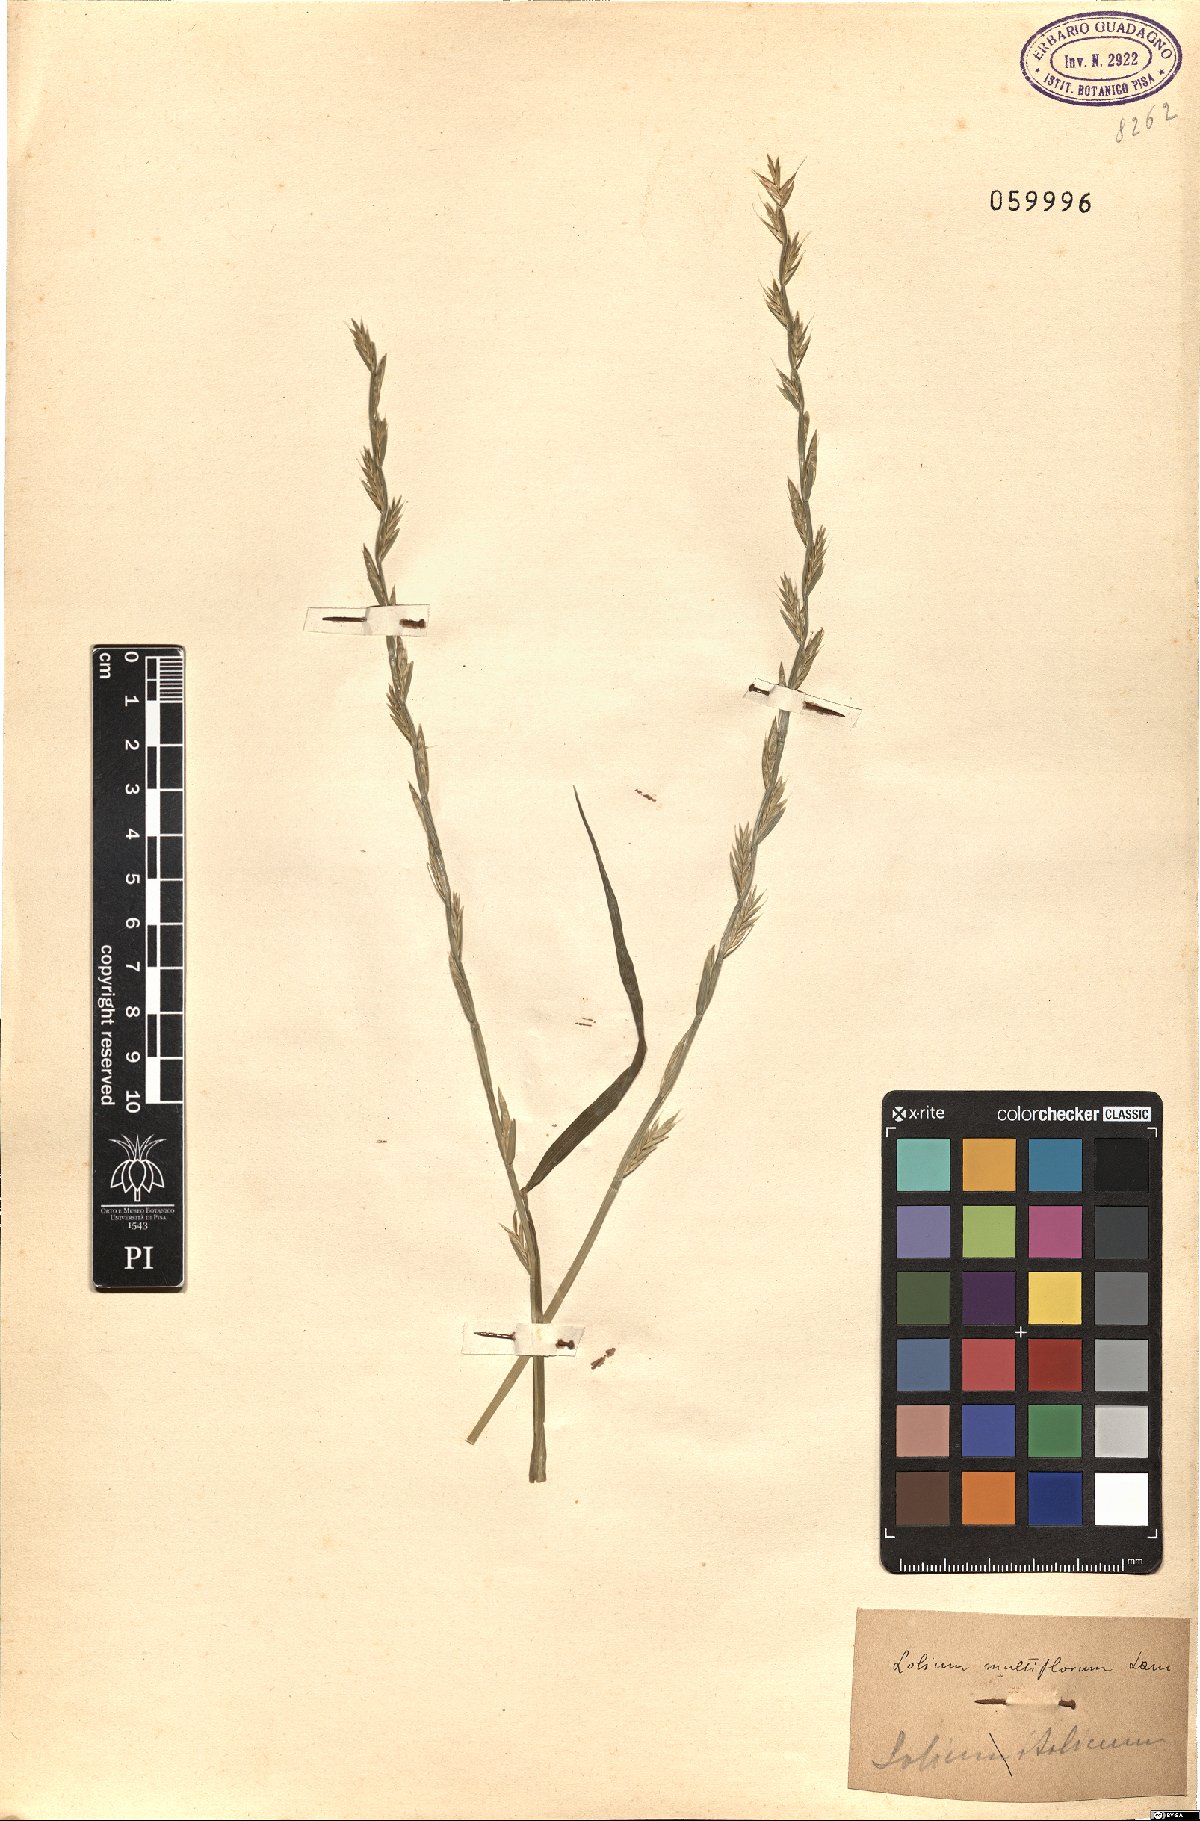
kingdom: Plantae
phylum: Tracheophyta
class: Liliopsida
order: Poales
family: Poaceae
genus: Lolium
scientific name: Lolium multiflorum
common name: Annual ryegrass
